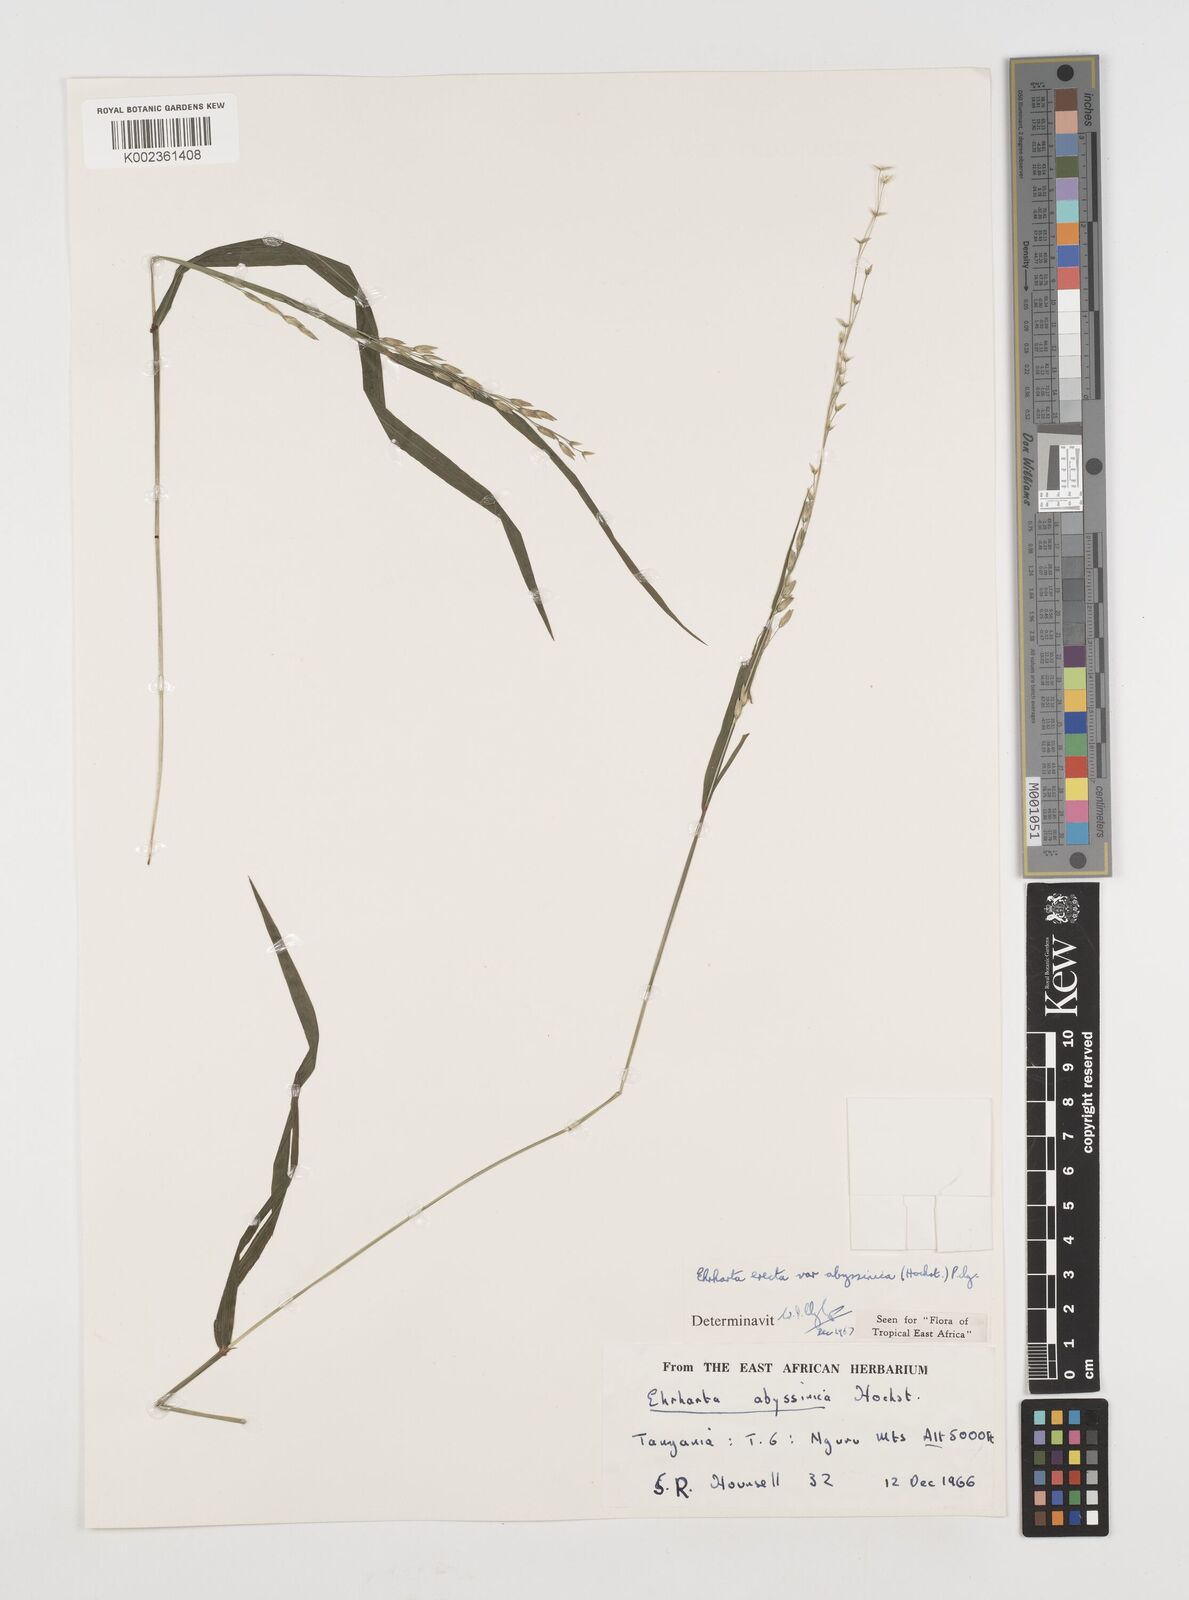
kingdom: Plantae
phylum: Tracheophyta
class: Liliopsida
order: Poales
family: Poaceae
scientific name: Poaceae
